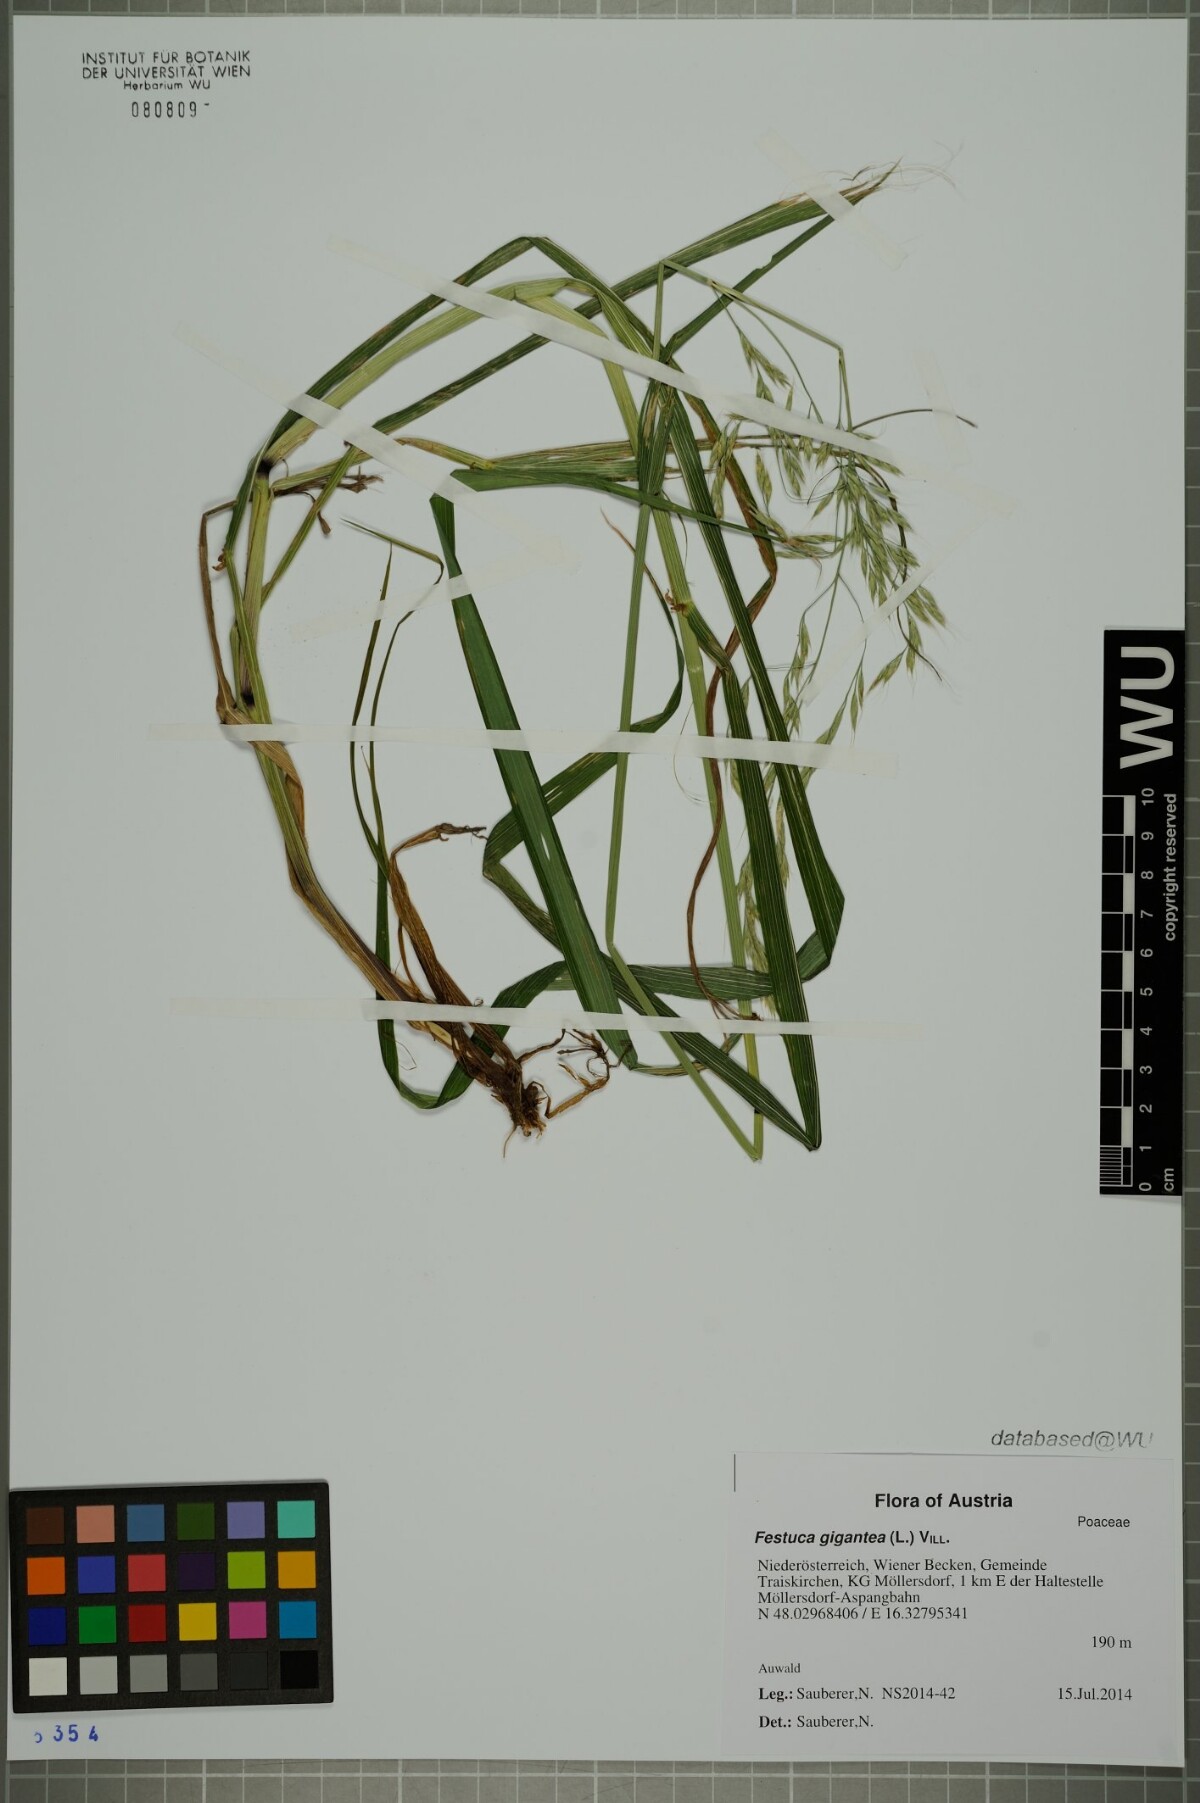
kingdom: Plantae
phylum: Tracheophyta
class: Liliopsida
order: Poales
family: Poaceae
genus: Lolium
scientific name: Lolium giganteum
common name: Giant fescue
